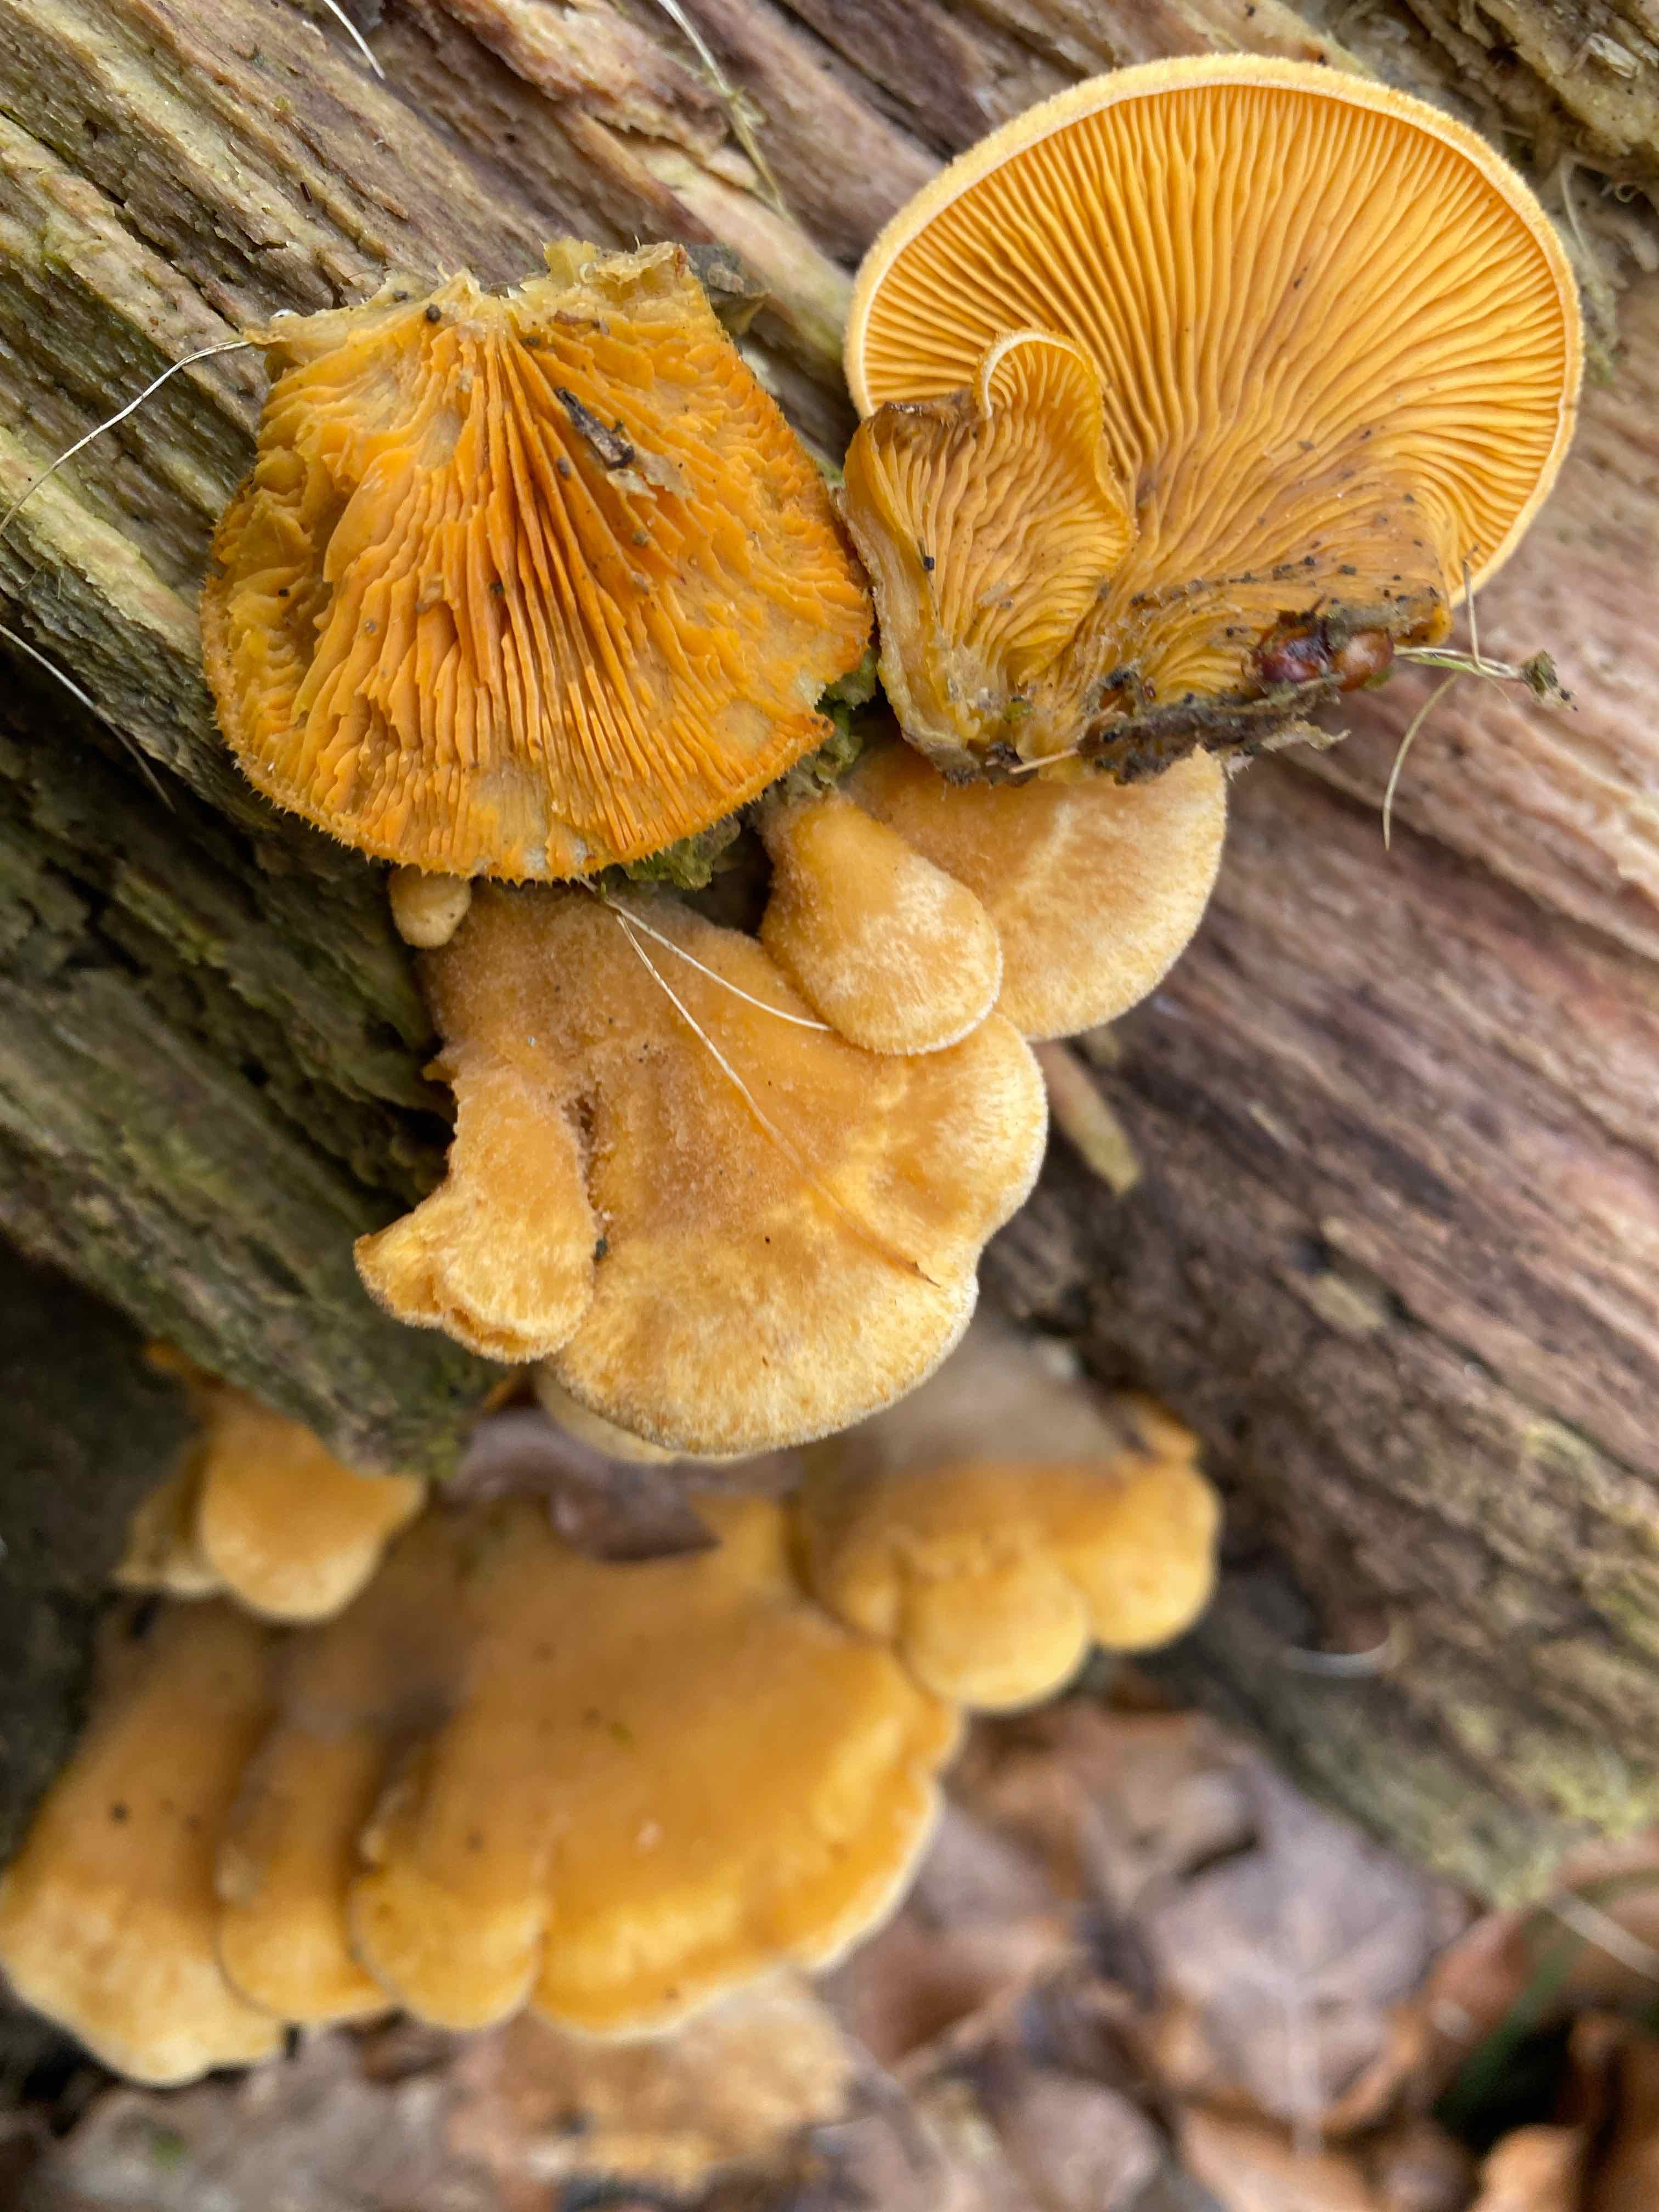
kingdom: Fungi
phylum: Basidiomycota
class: Agaricomycetes
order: Agaricales
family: Phyllotopsidaceae
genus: Phyllotopsis
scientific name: Phyllotopsis nidulans
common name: okkerblad
